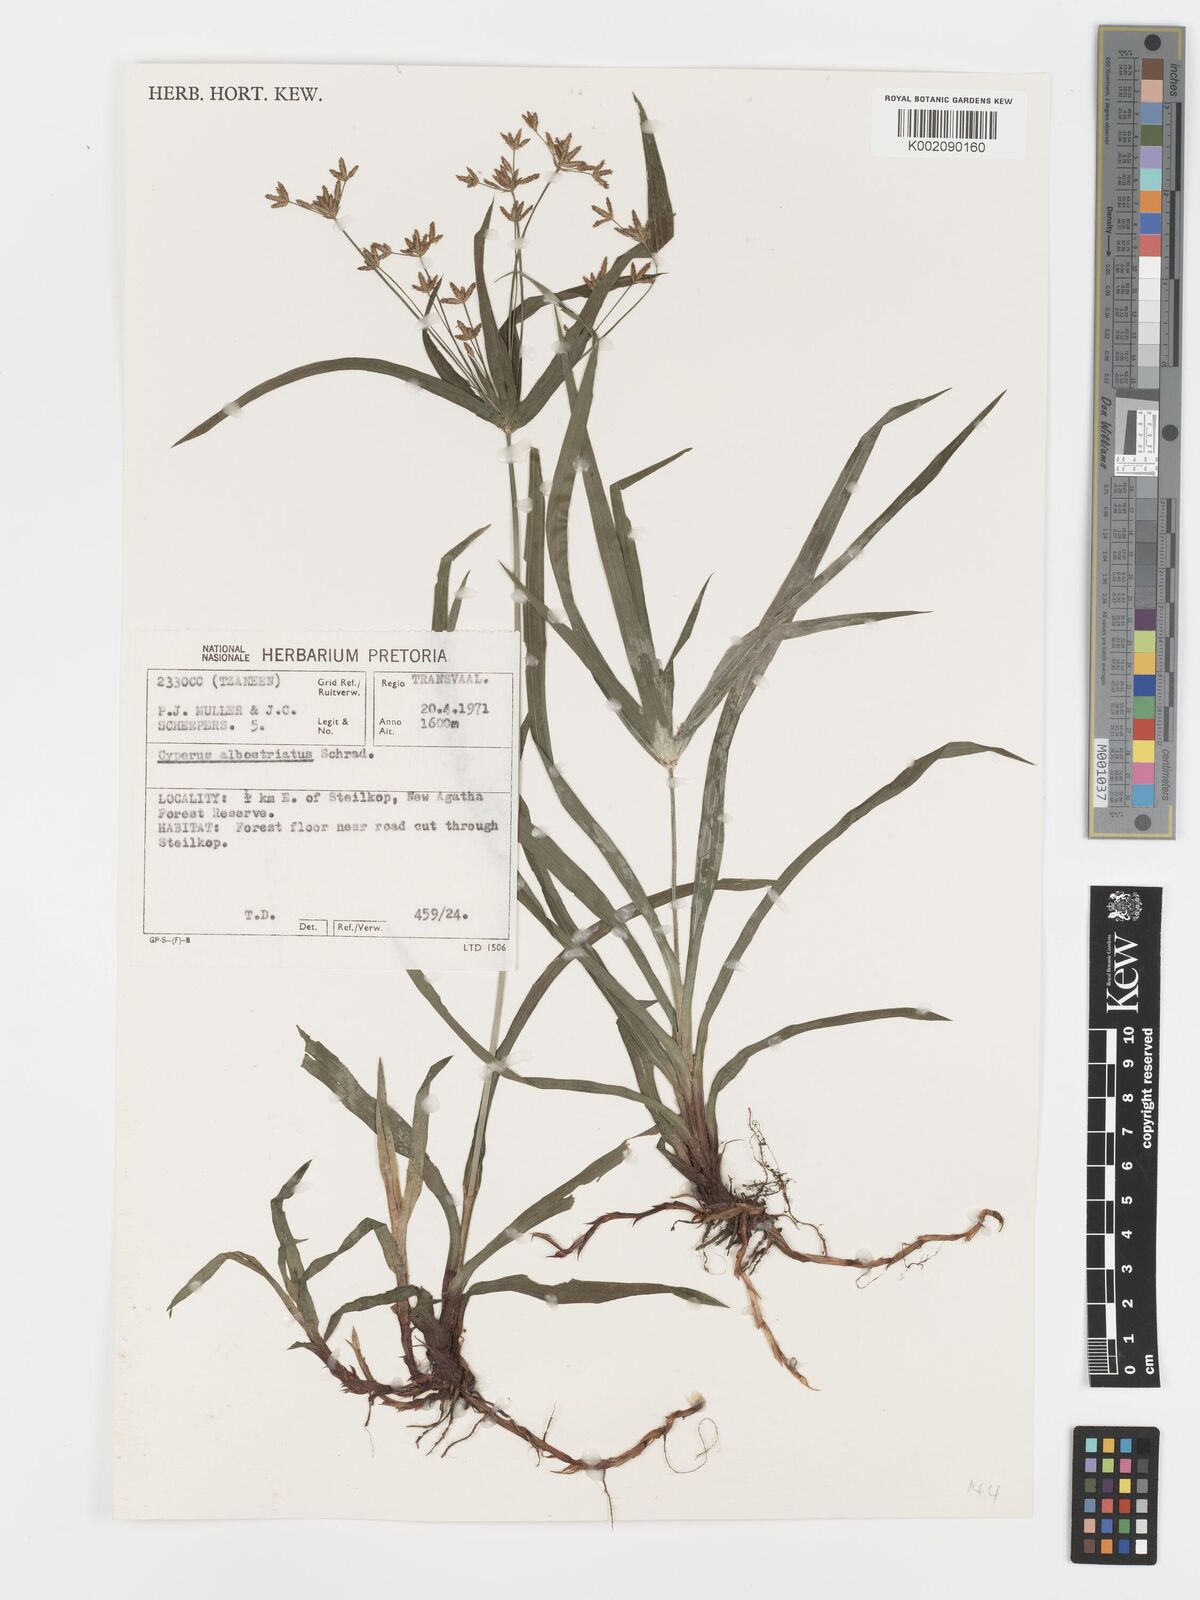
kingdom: Plantae
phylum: Tracheophyta
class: Liliopsida
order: Poales
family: Cyperaceae
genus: Cyperus
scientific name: Cyperus albostriatus
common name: Dwarf umbrella-grass
